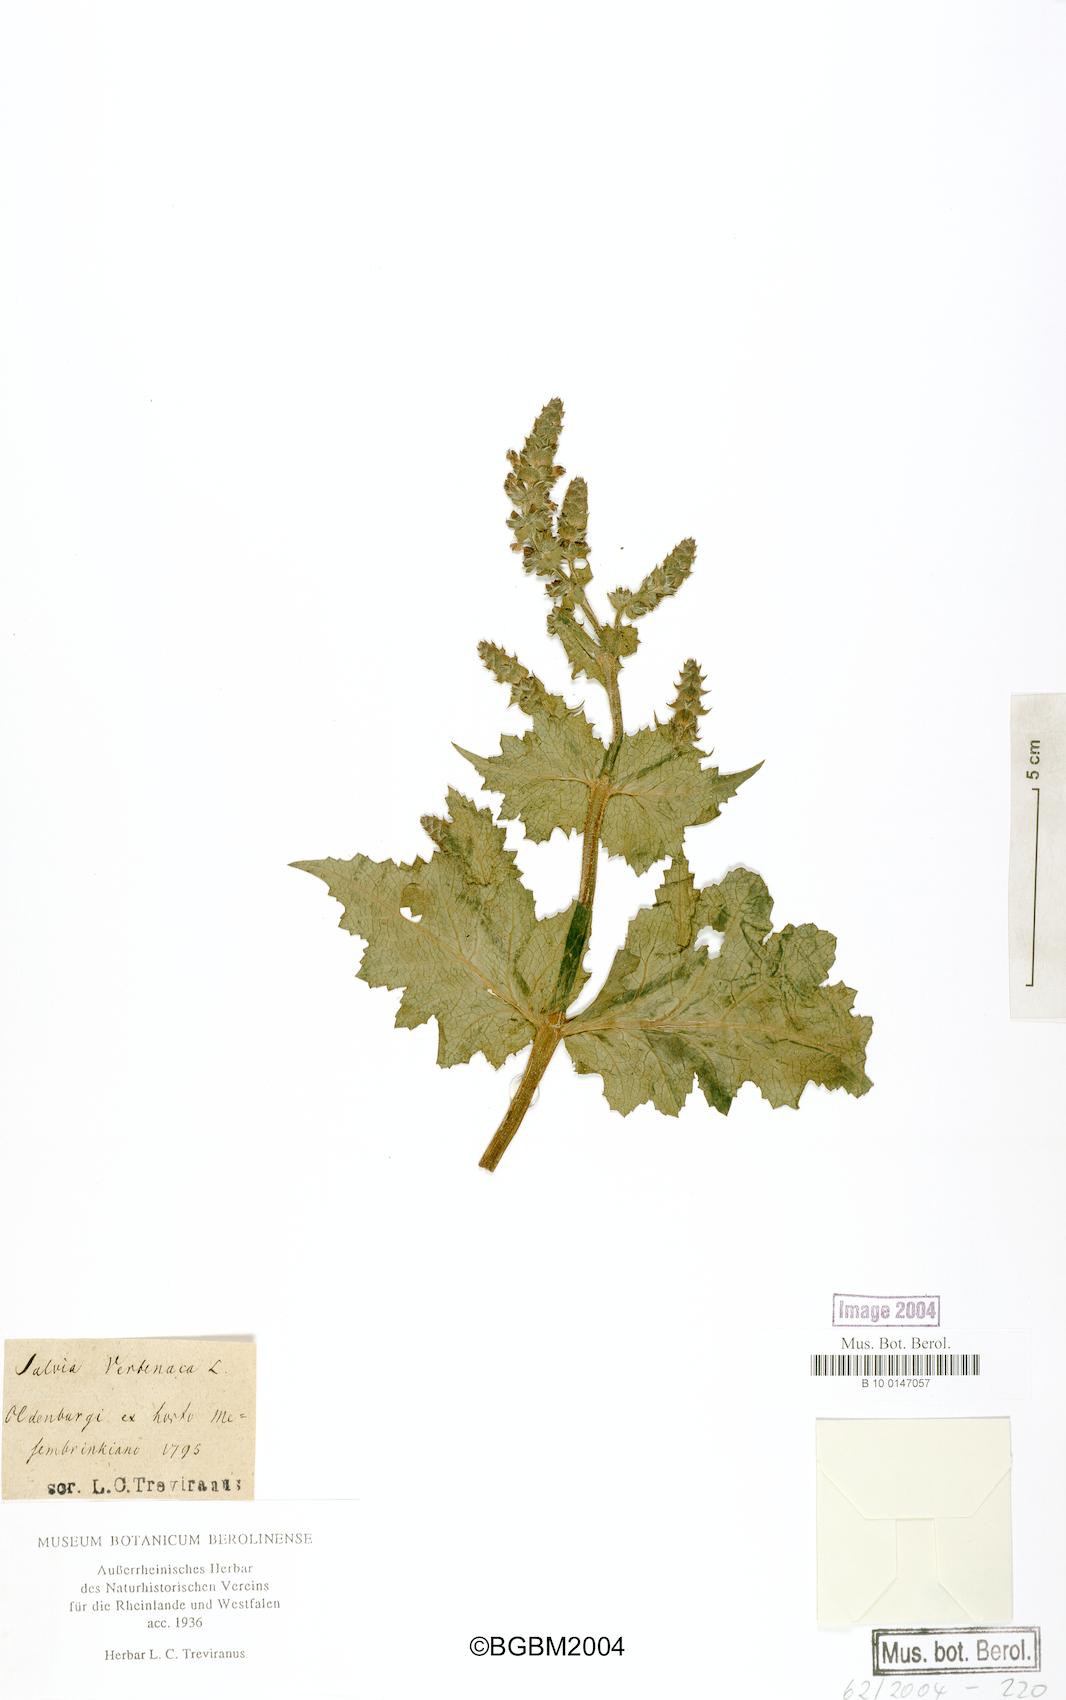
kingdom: Plantae
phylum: Tracheophyta
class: Magnoliopsida
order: Lamiales
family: Lamiaceae
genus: Salvia
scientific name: Salvia verbenaca
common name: Wild clary
